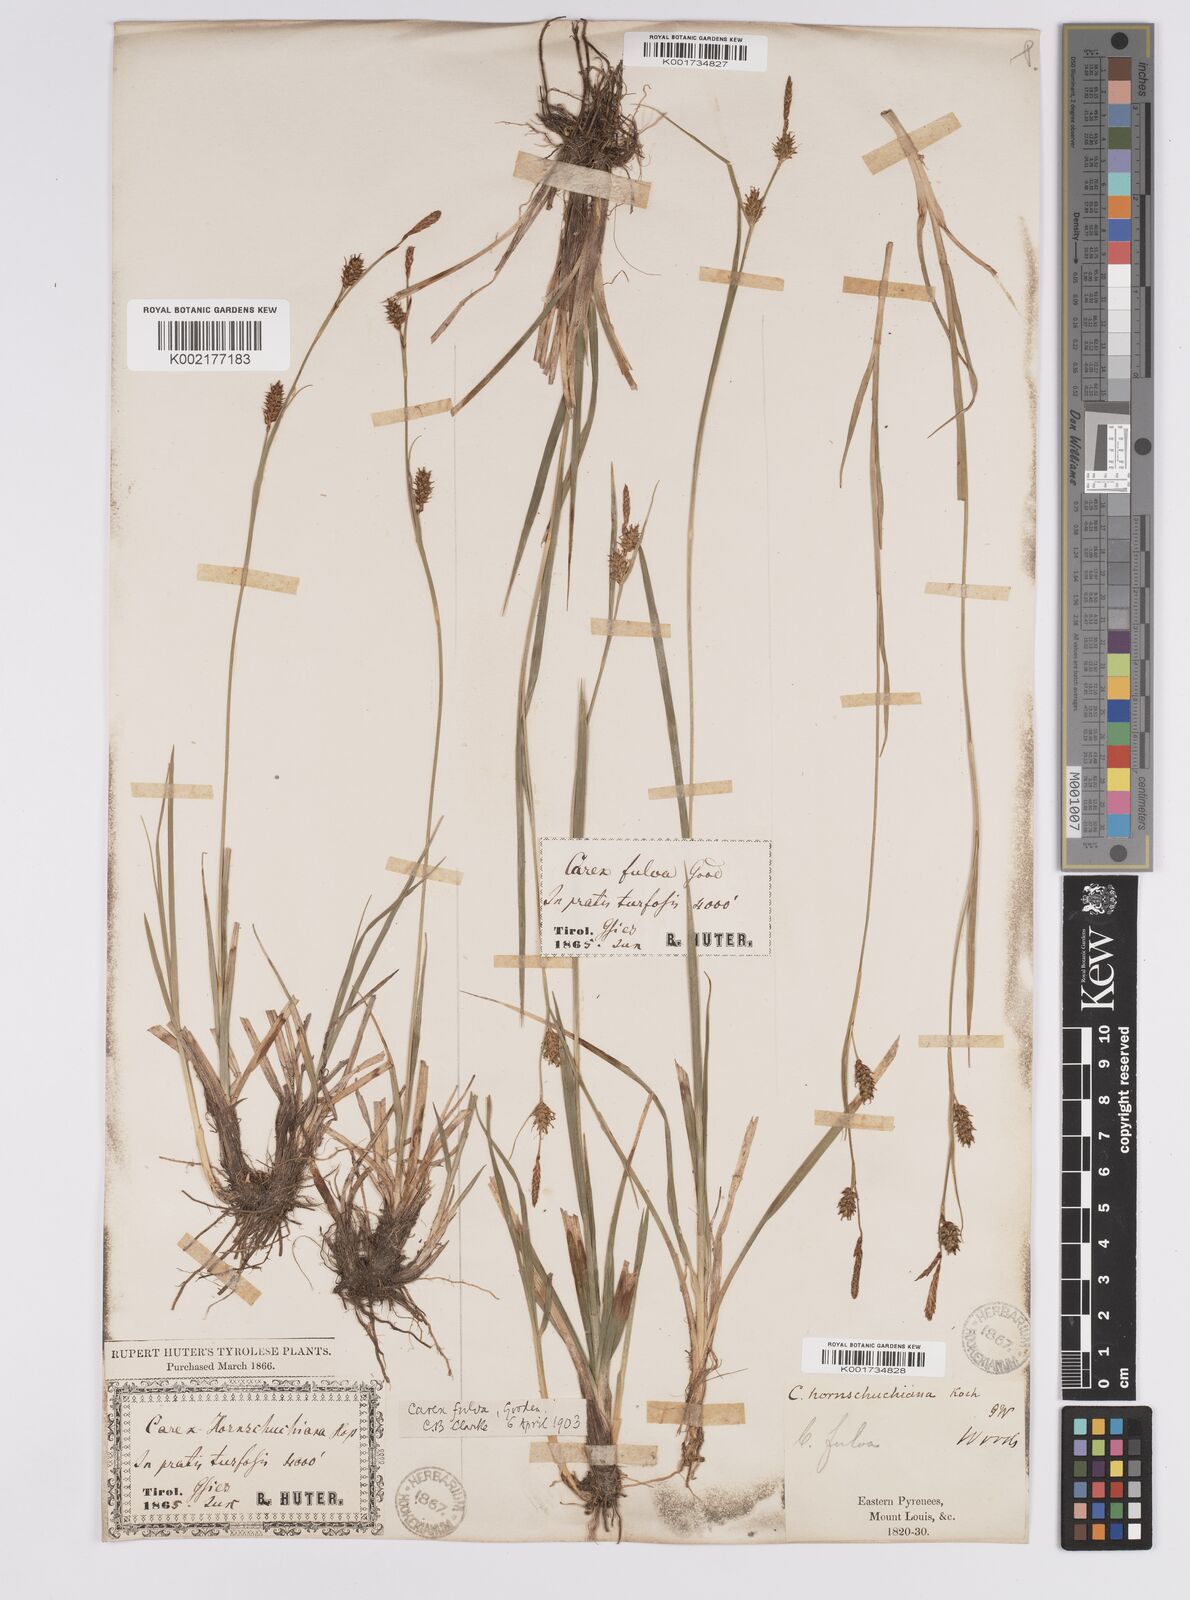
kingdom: Plantae
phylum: Tracheophyta
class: Liliopsida
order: Poales
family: Cyperaceae
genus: Carex
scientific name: Carex hostiana
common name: Tawny sedge
